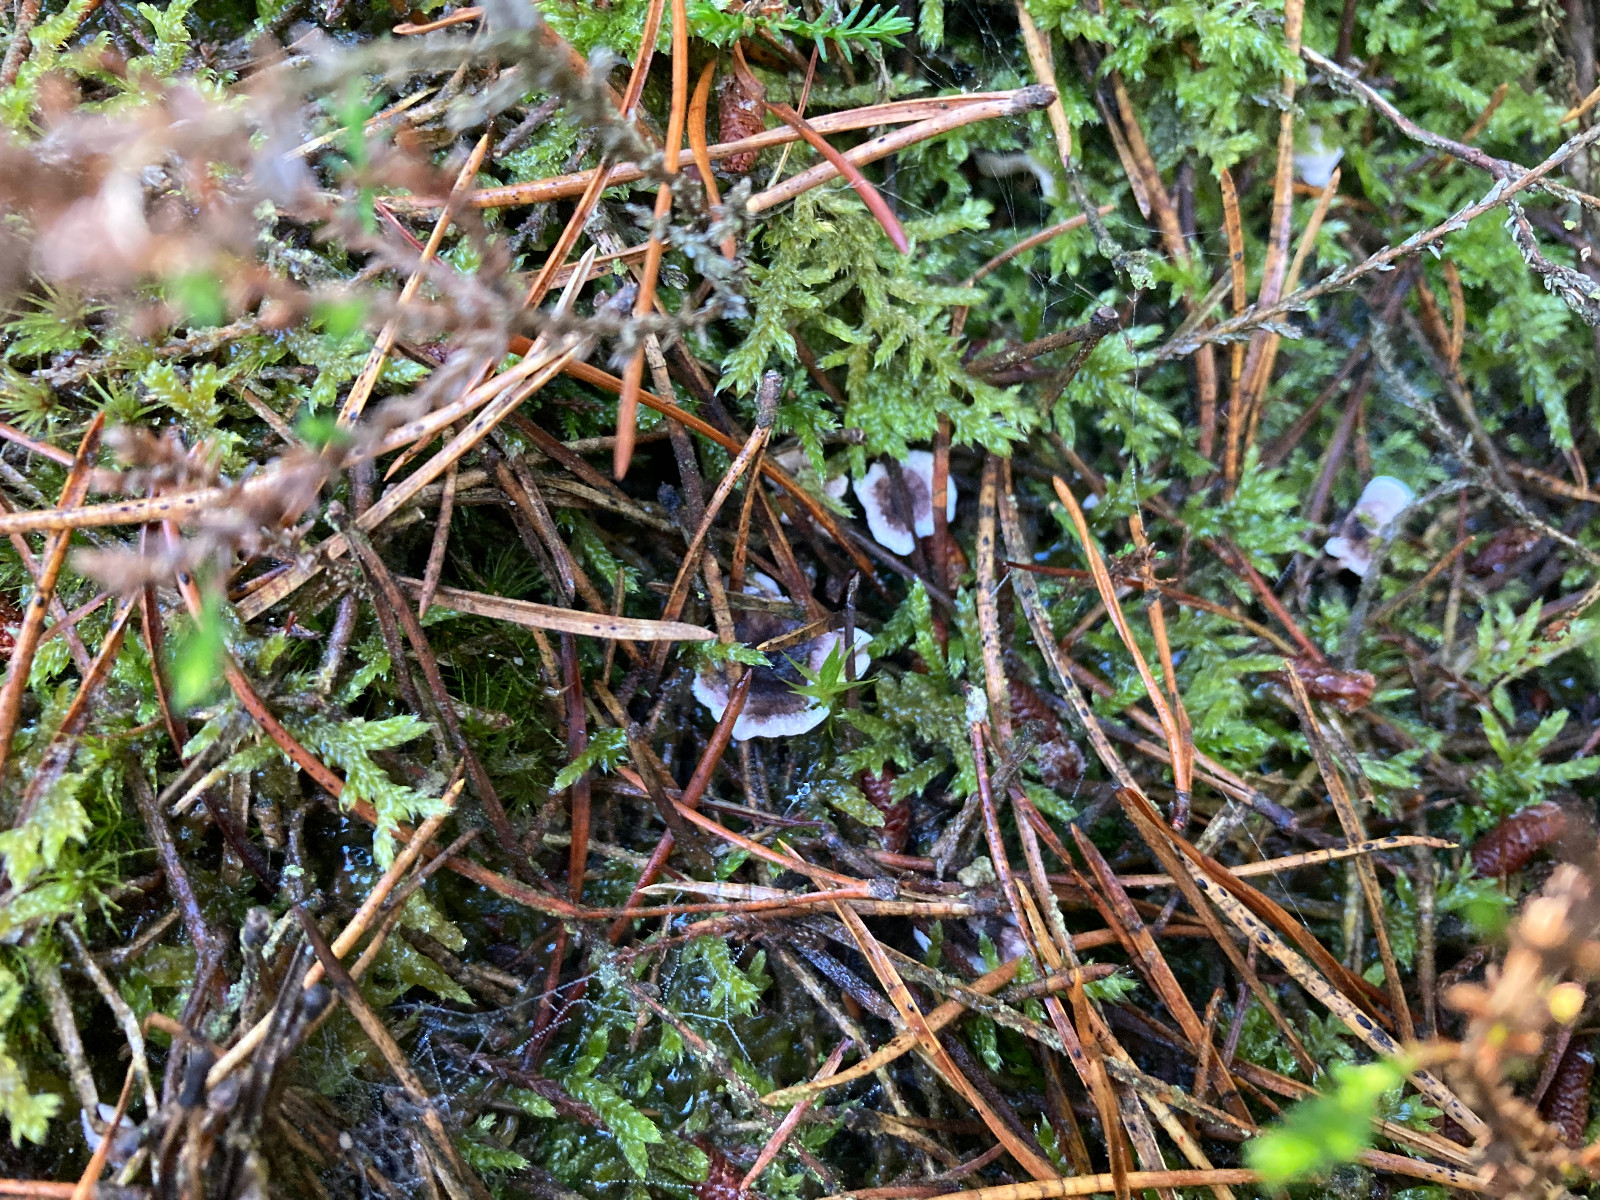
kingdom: Fungi
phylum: Basidiomycota
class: Agaricomycetes
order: Thelephorales
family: Thelephoraceae
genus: Phellodon
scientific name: Phellodon tomentosus
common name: vellugtende duftpigsvamp
